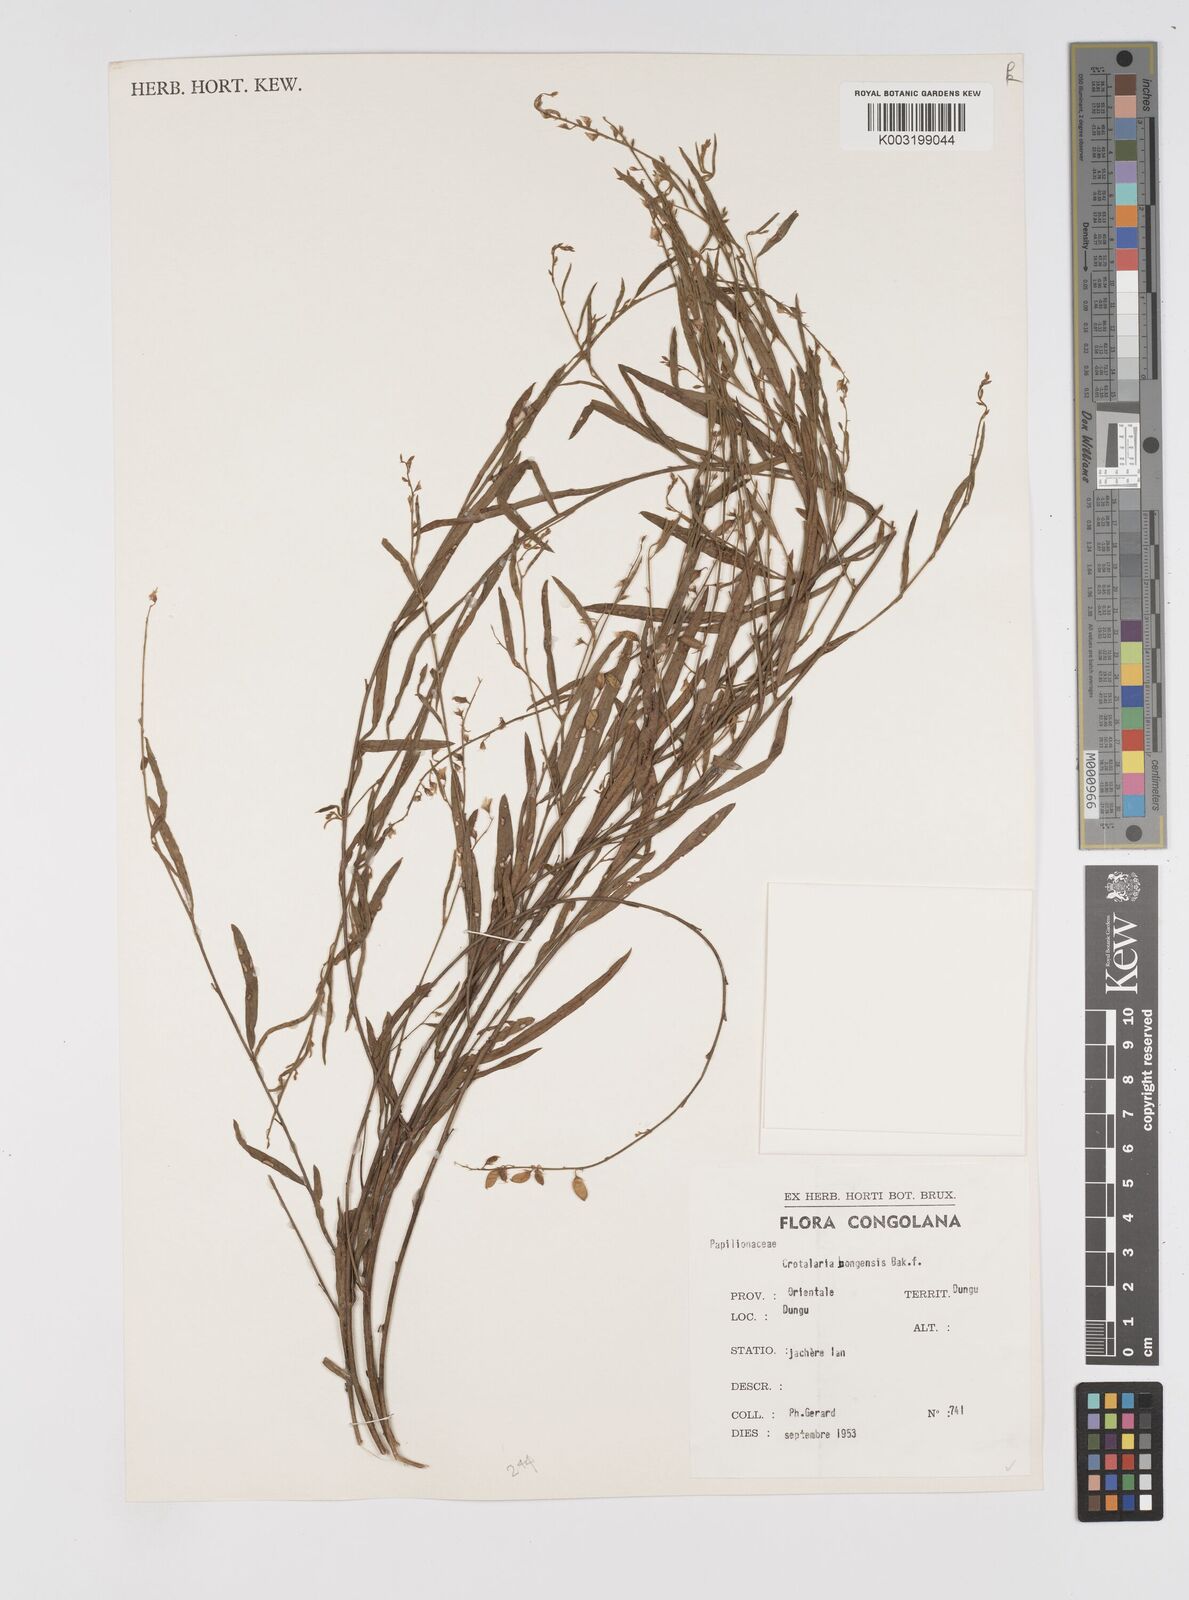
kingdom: Plantae
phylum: Tracheophyta
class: Magnoliopsida
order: Fabales
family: Fabaceae
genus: Crotalaria
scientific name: Crotalaria bongensis
